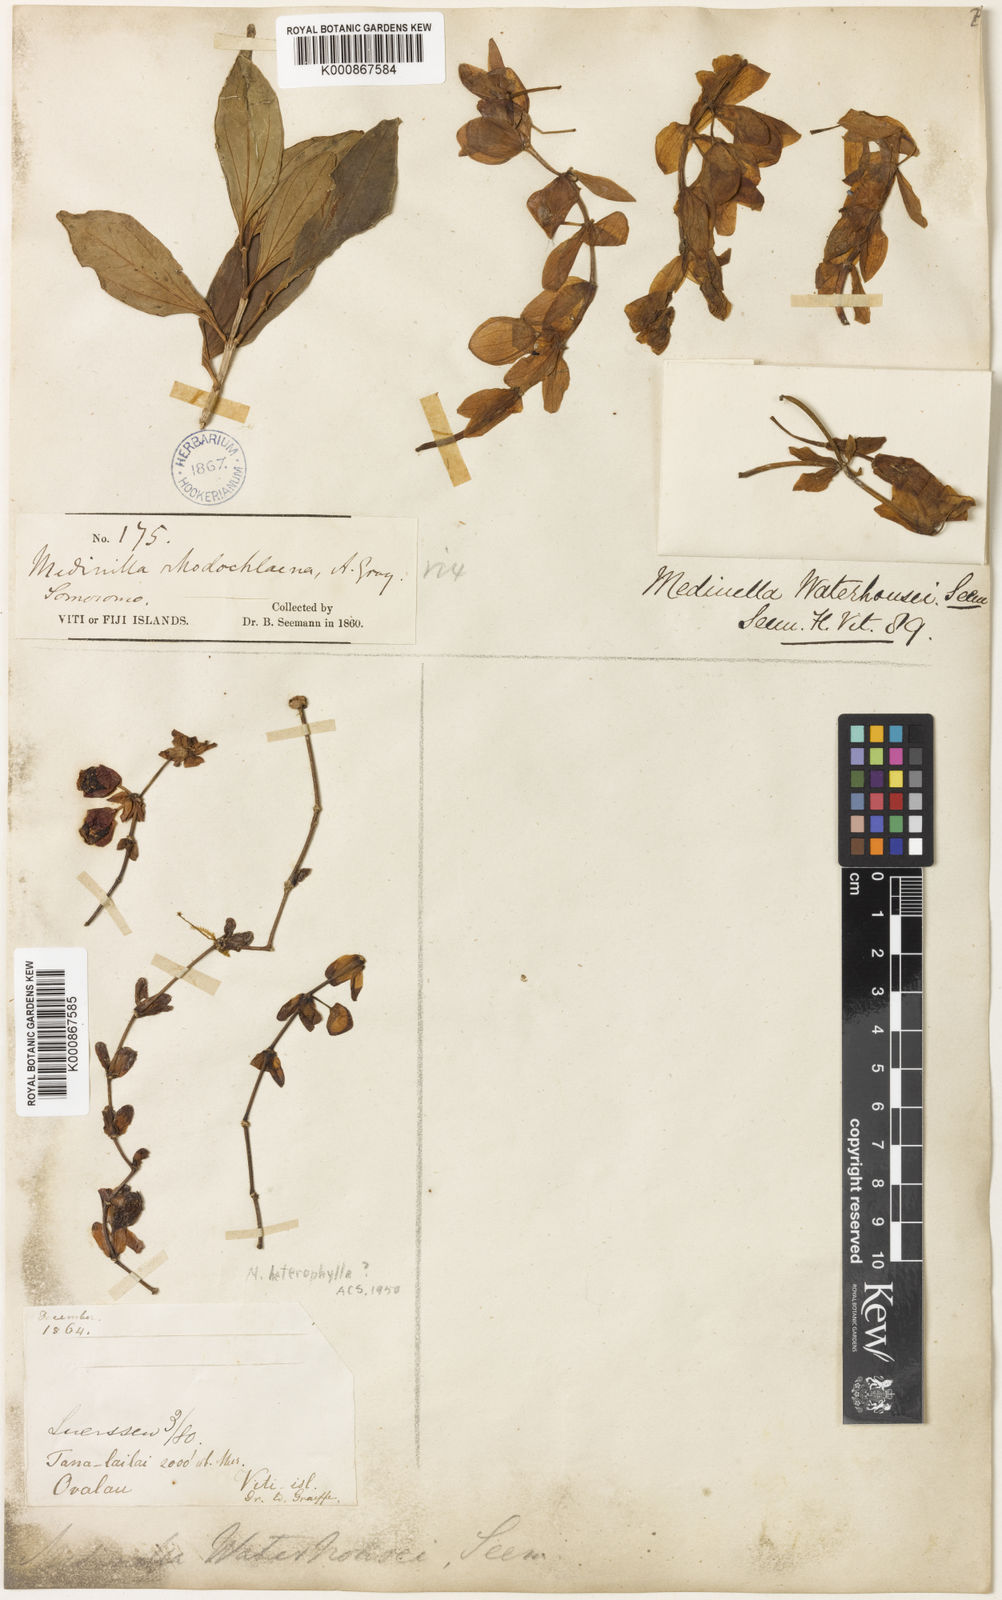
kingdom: Plantae
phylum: Tracheophyta
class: Magnoliopsida
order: Myrtales
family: Melastomataceae
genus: Medinilla
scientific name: Medinilla waterhousei
